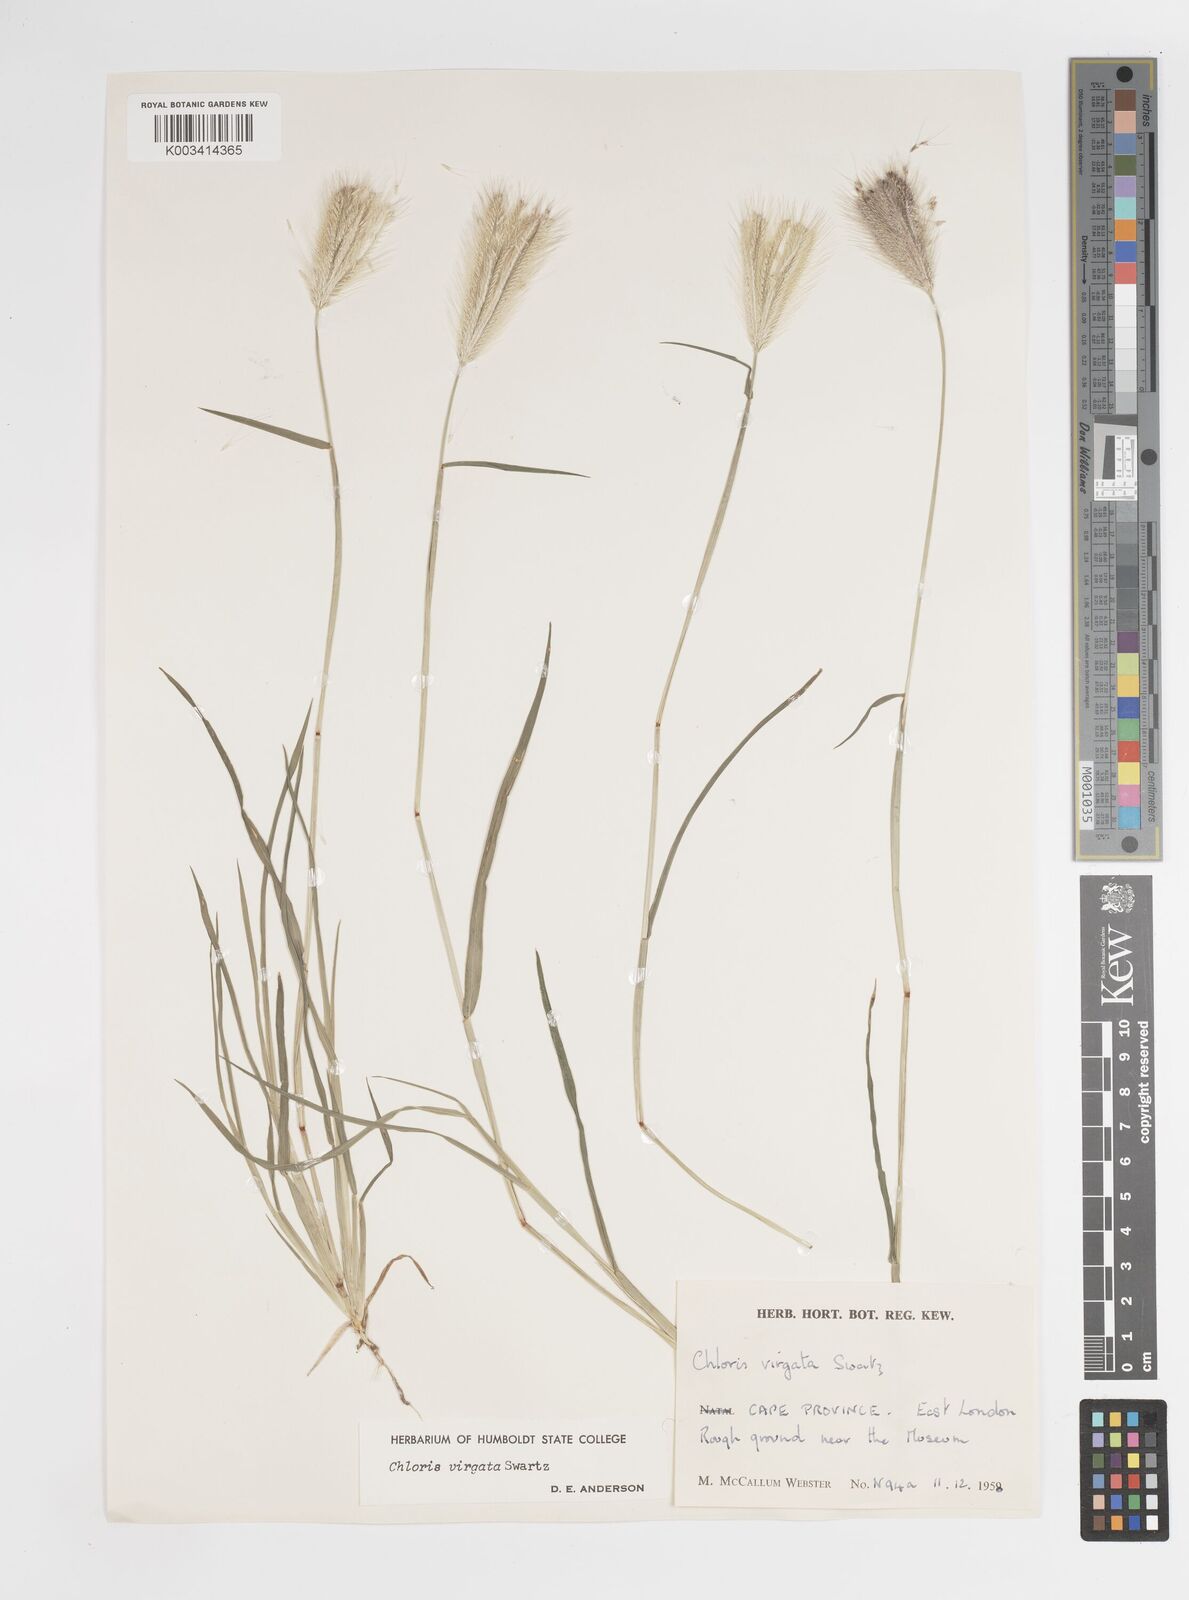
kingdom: Plantae
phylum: Tracheophyta
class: Liliopsida
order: Poales
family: Poaceae
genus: Chloris
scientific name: Chloris virgata
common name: Feathery rhodes-grass
